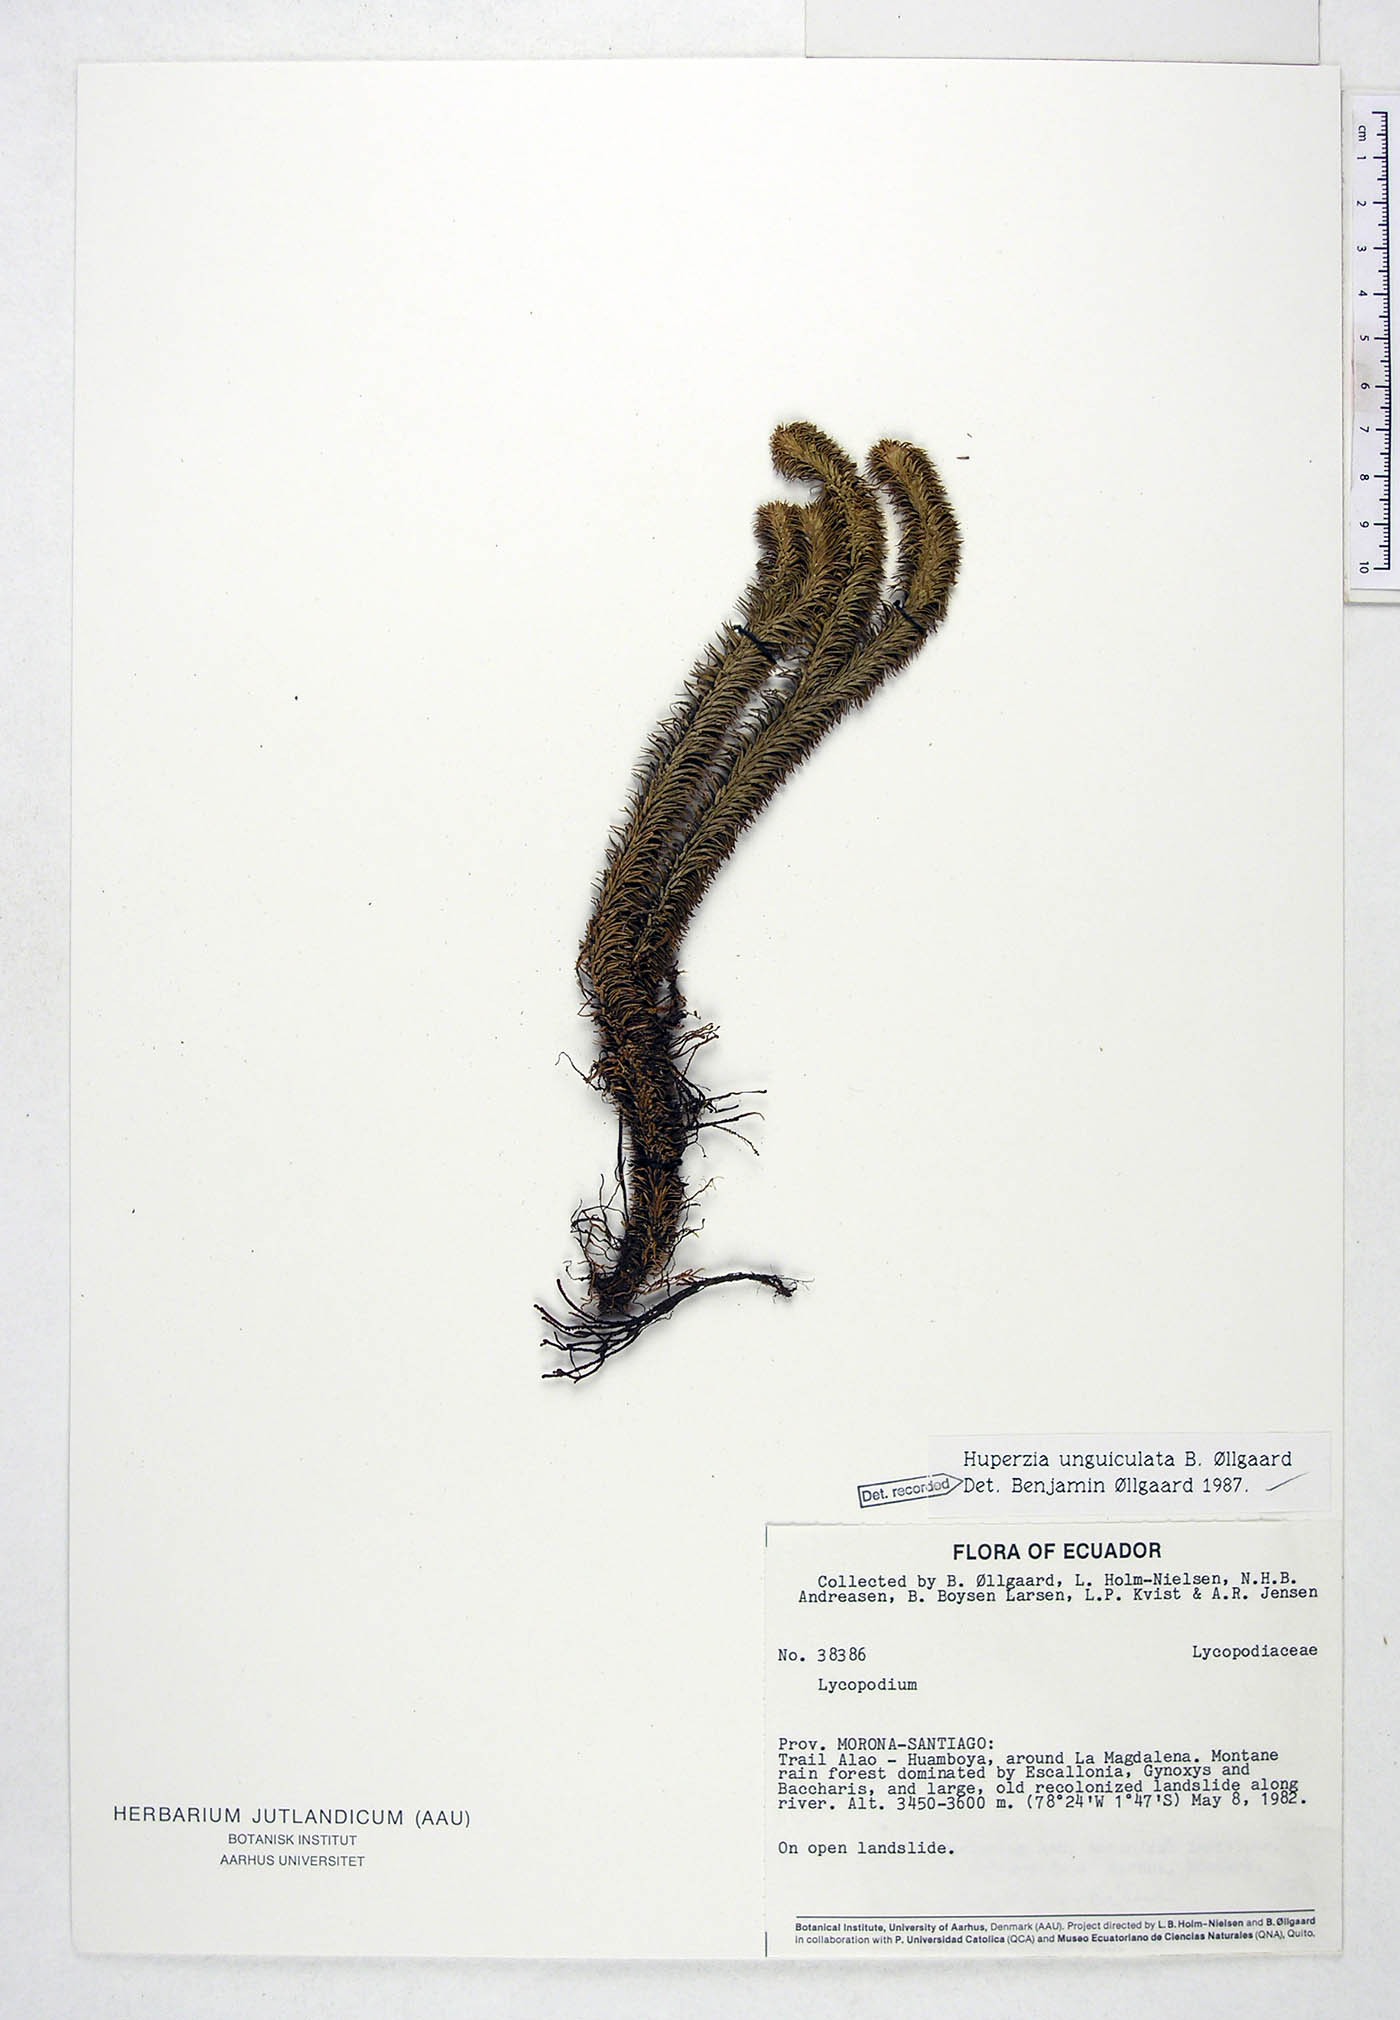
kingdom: Plantae
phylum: Tracheophyta
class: Lycopodiopsida
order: Lycopodiales
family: Lycopodiaceae
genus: Phlegmariurus
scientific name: Phlegmariurus unguiculatus
